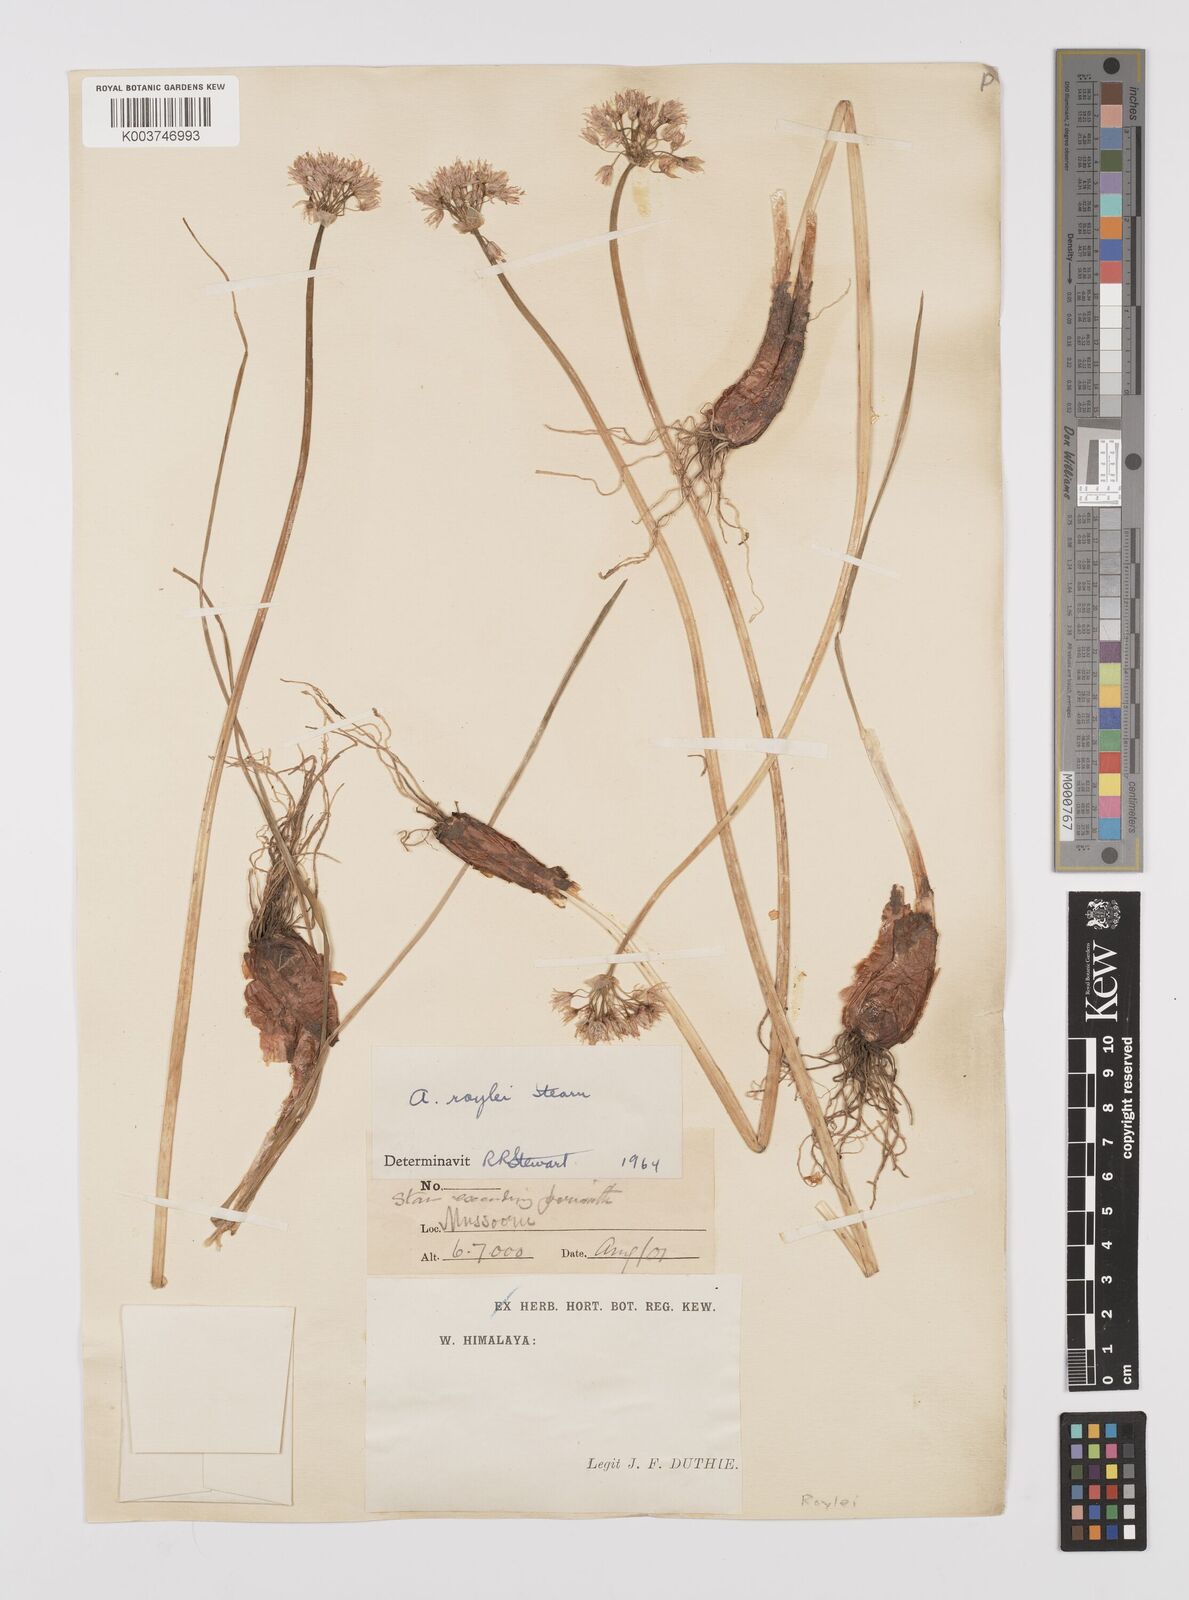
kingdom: Plantae
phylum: Tracheophyta
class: Liliopsida
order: Asparagales
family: Amaryllidaceae
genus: Allium
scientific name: Allium roylei
